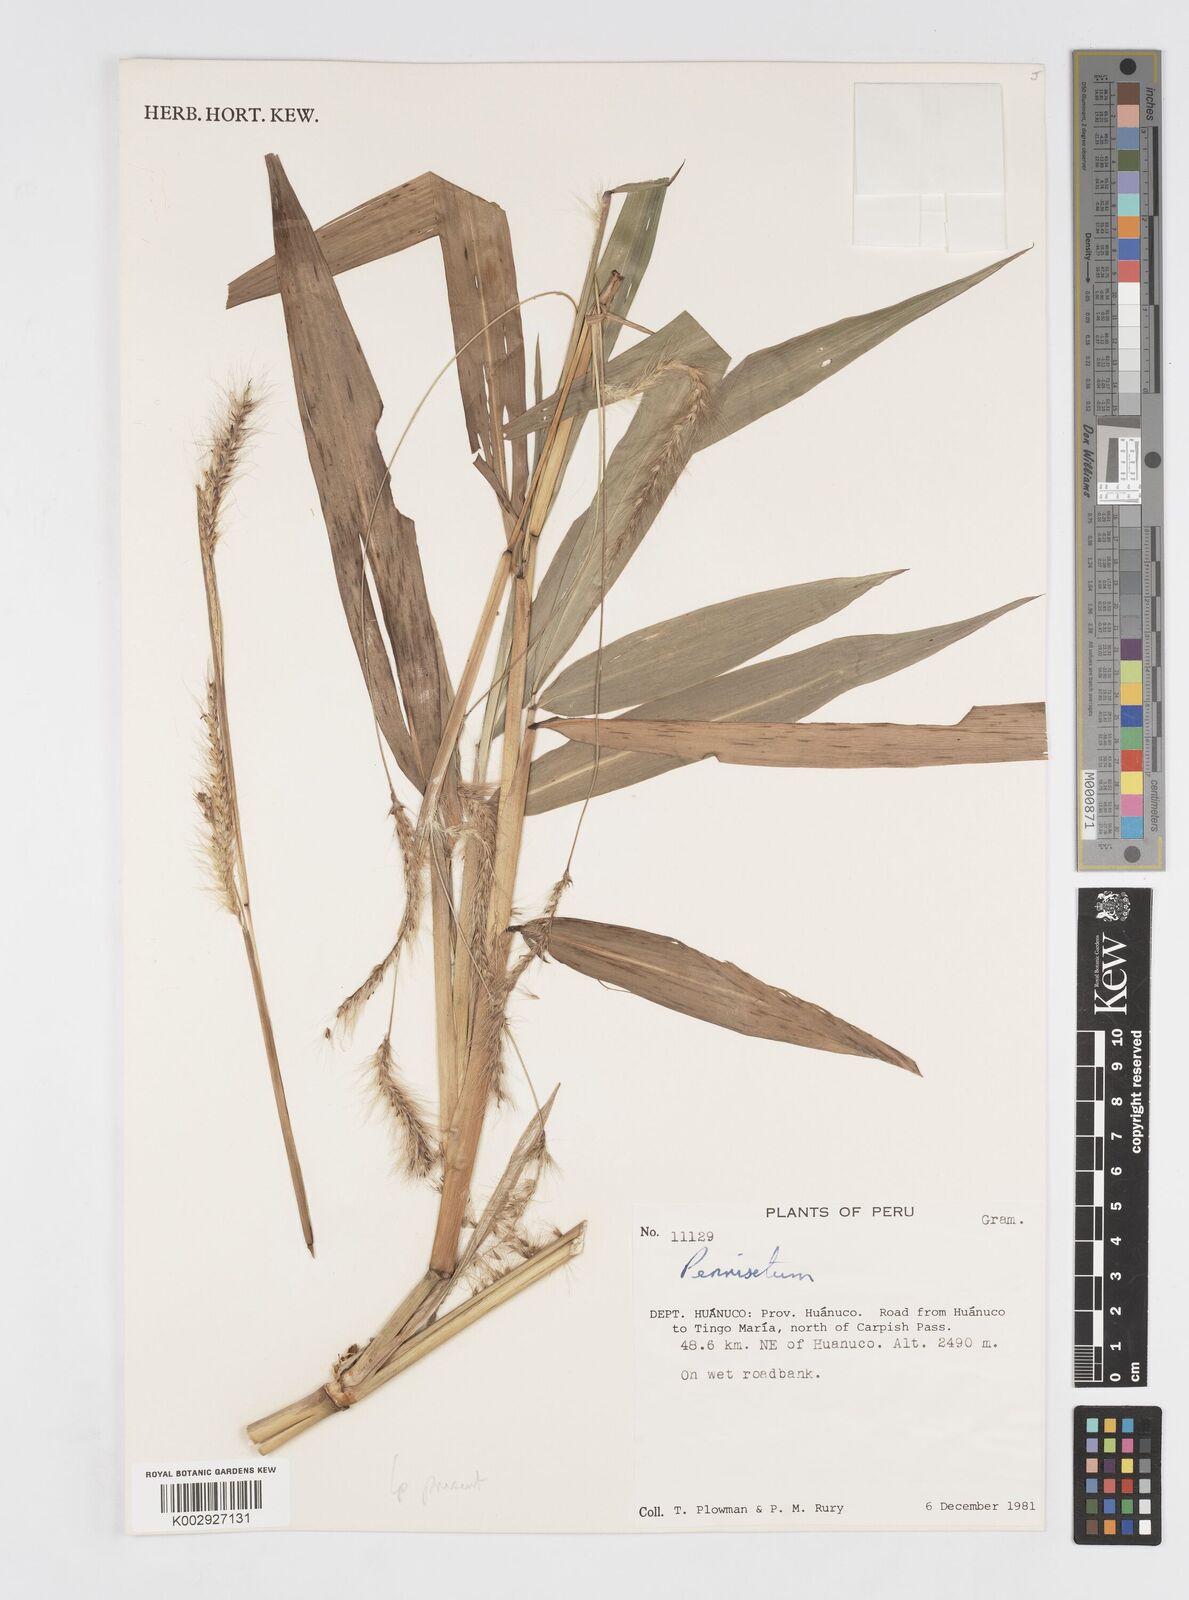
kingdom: Plantae
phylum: Tracheophyta
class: Liliopsida
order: Poales
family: Poaceae
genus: Cenchrus
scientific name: Cenchrus tristachyus
